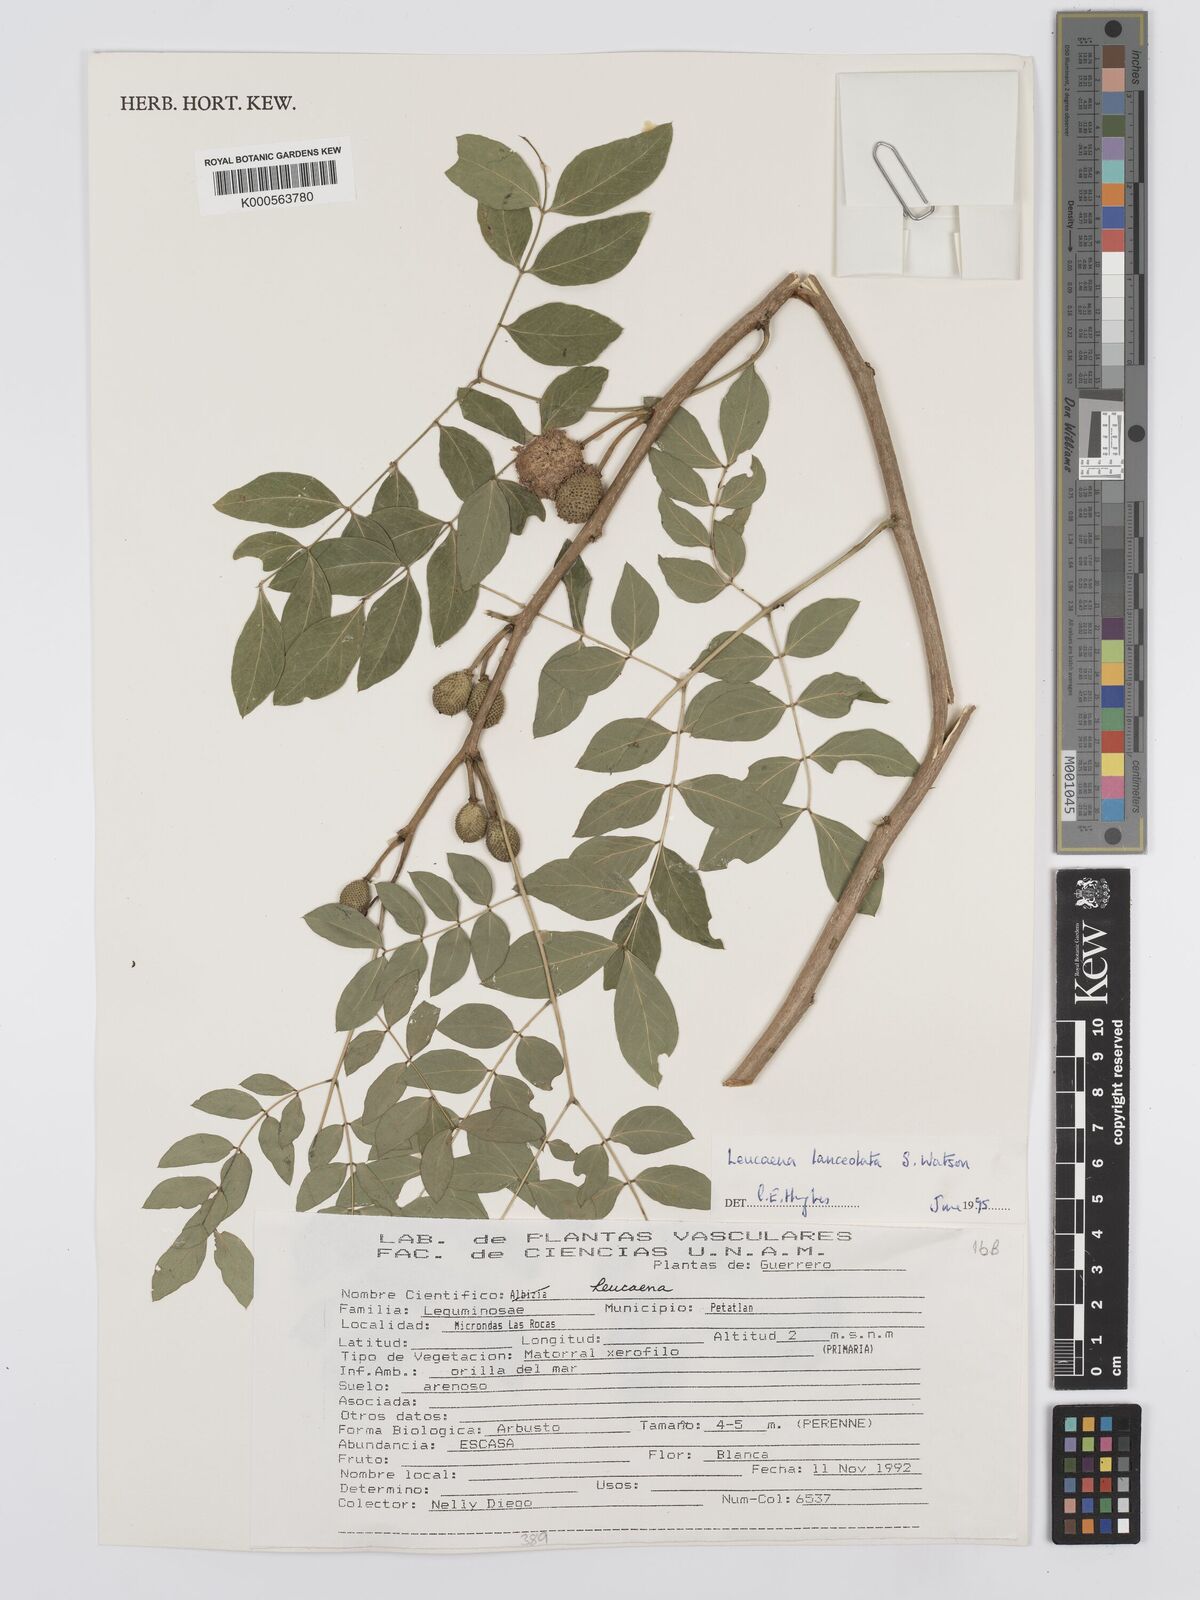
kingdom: Plantae
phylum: Tracheophyta
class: Magnoliopsida
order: Fabales
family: Fabaceae
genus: Leucaena
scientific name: Leucaena lanceolata
